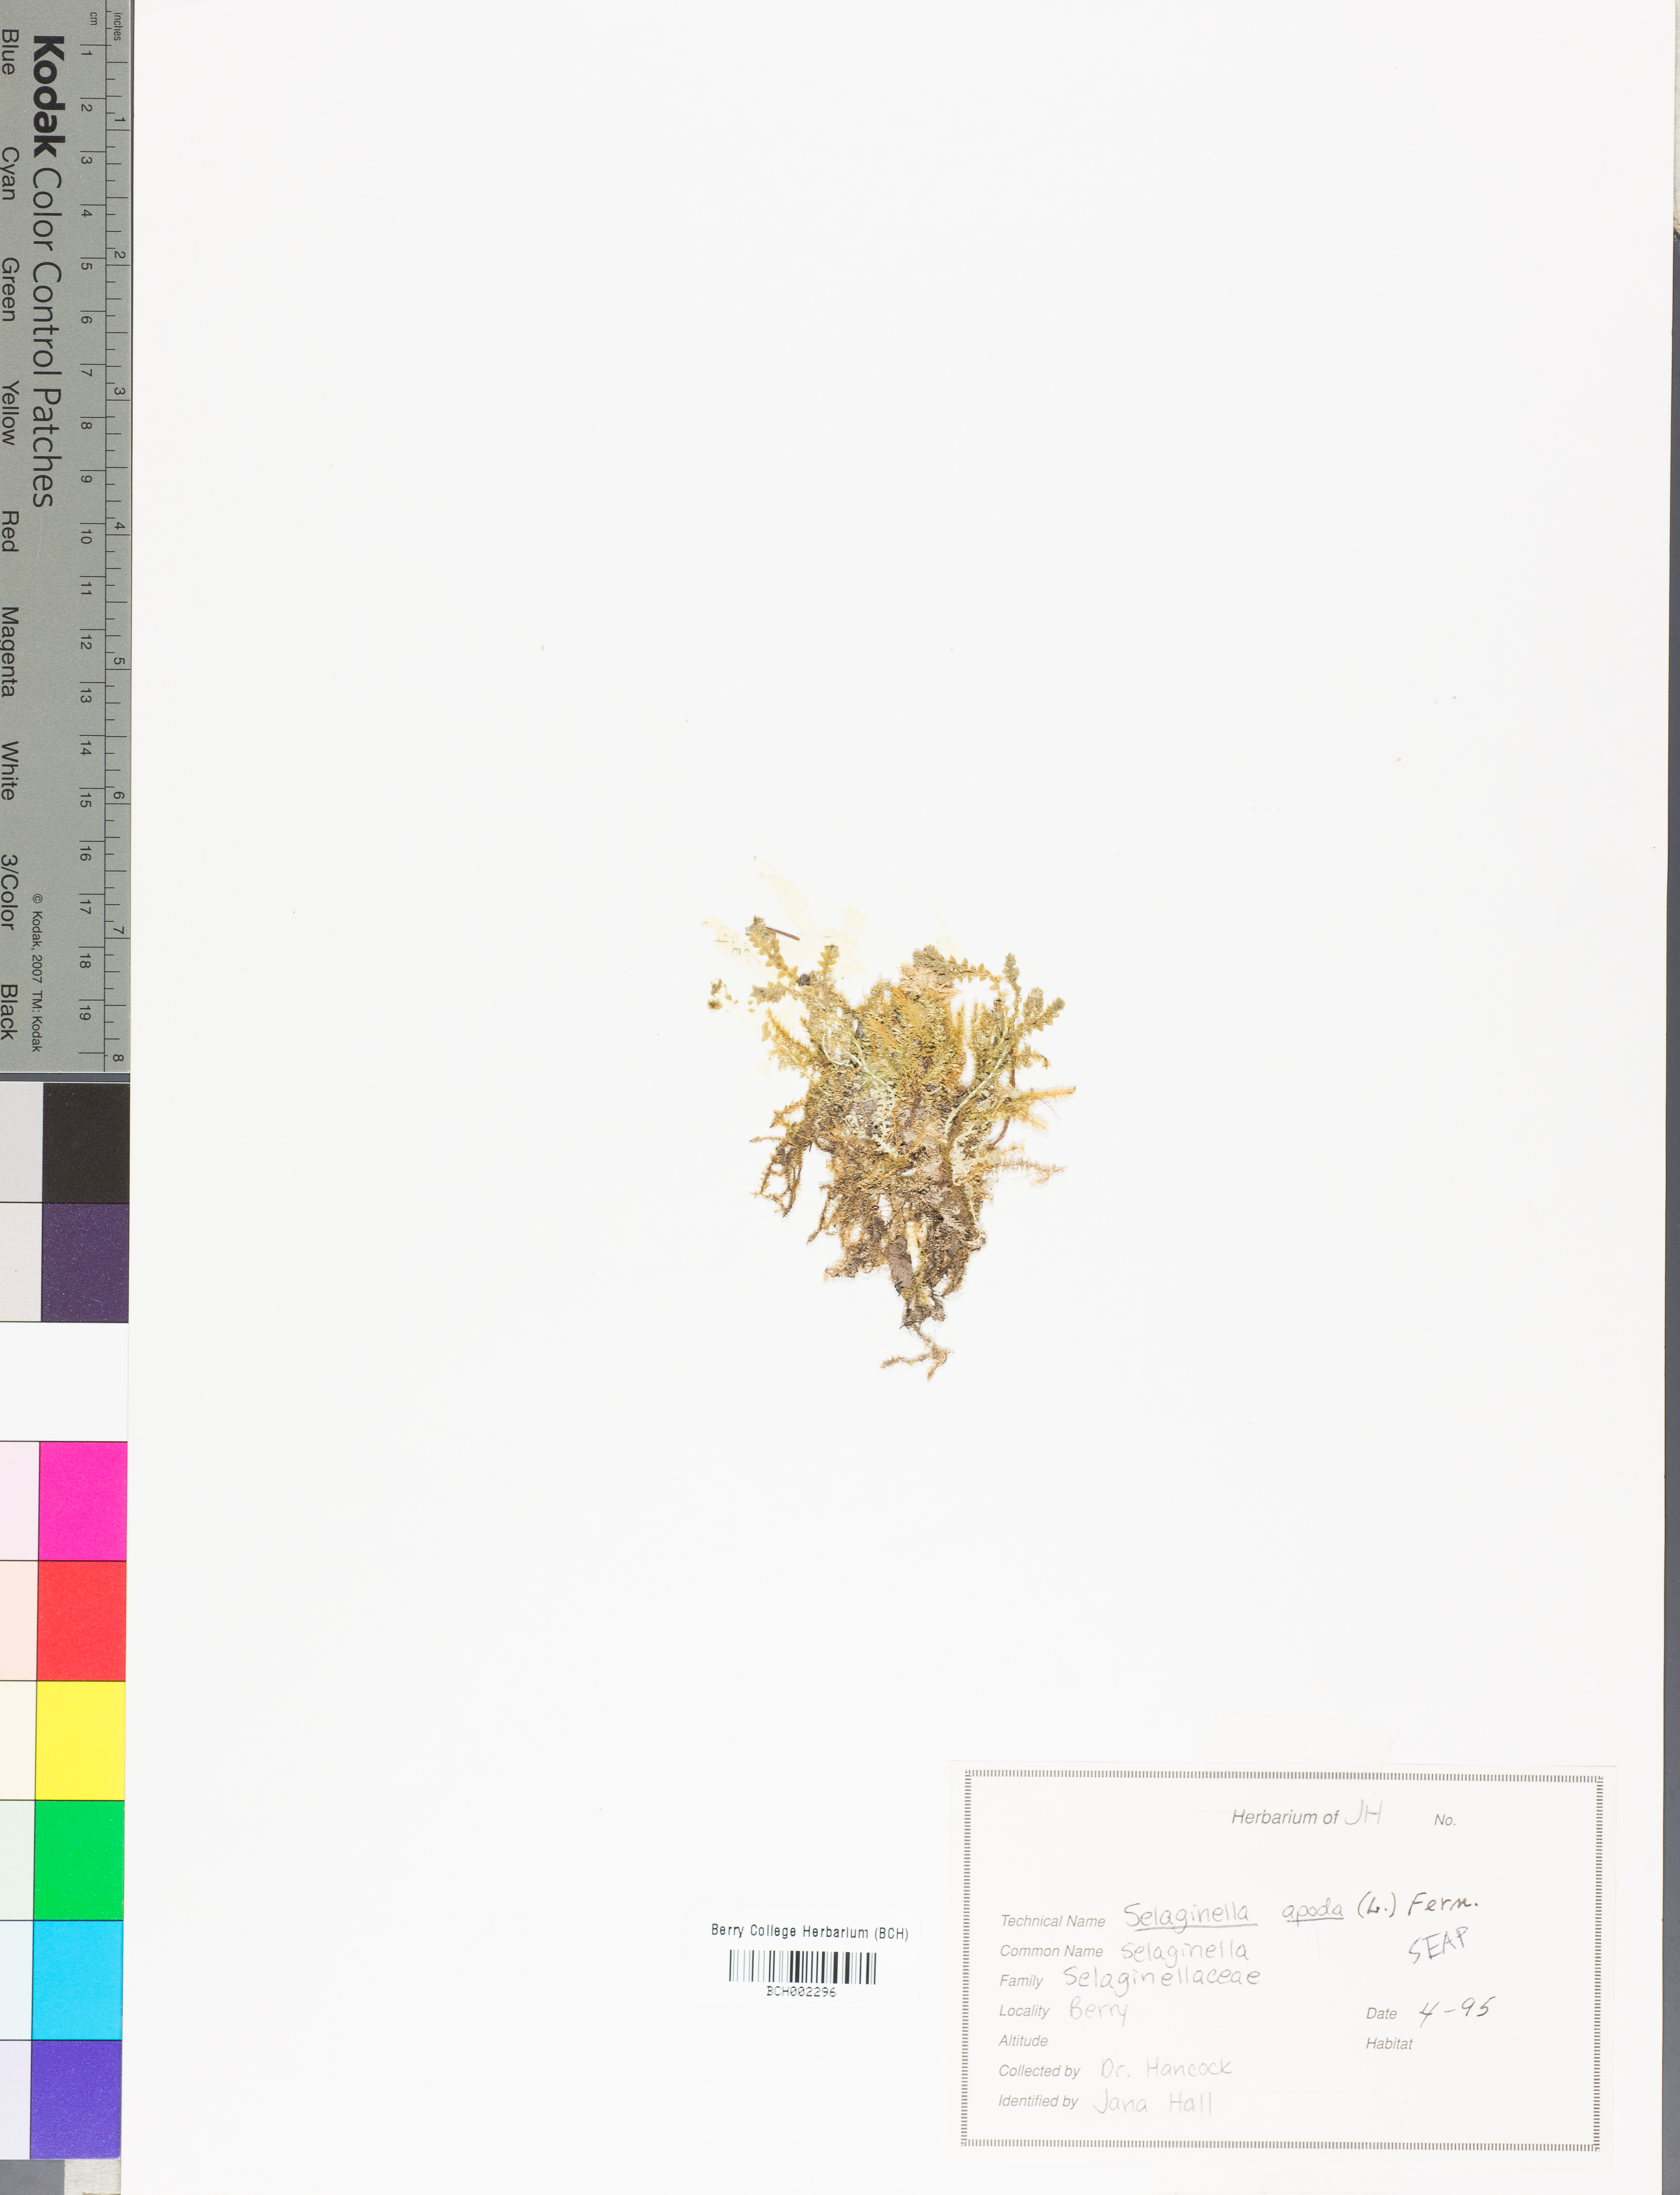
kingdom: Plantae
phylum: Tracheophyta
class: Lycopodiopsida
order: Selaginellales
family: Selaginellaceae
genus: Selaginella
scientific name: Selaginella apoda
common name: Creeping spikemoss
